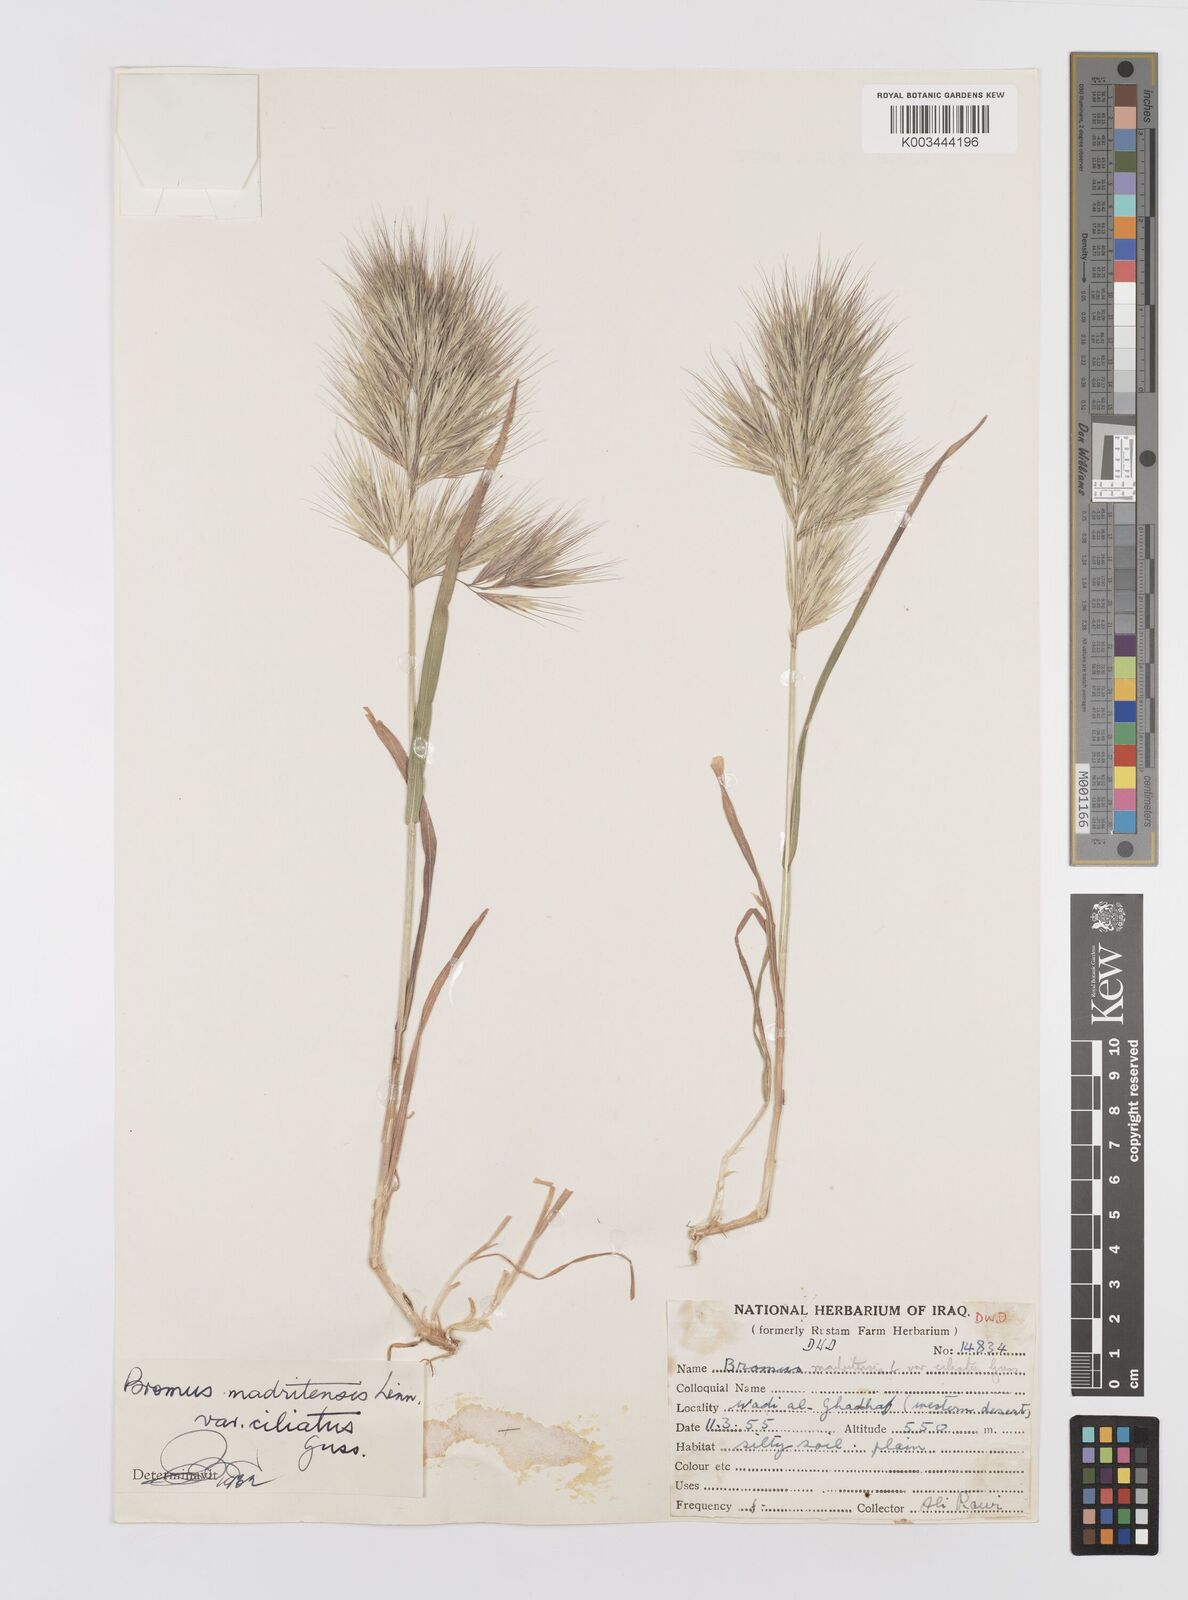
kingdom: Plantae
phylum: Tracheophyta
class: Liliopsida
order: Poales
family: Poaceae
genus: Bromus
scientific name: Bromus madritensis
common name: Compact brome
